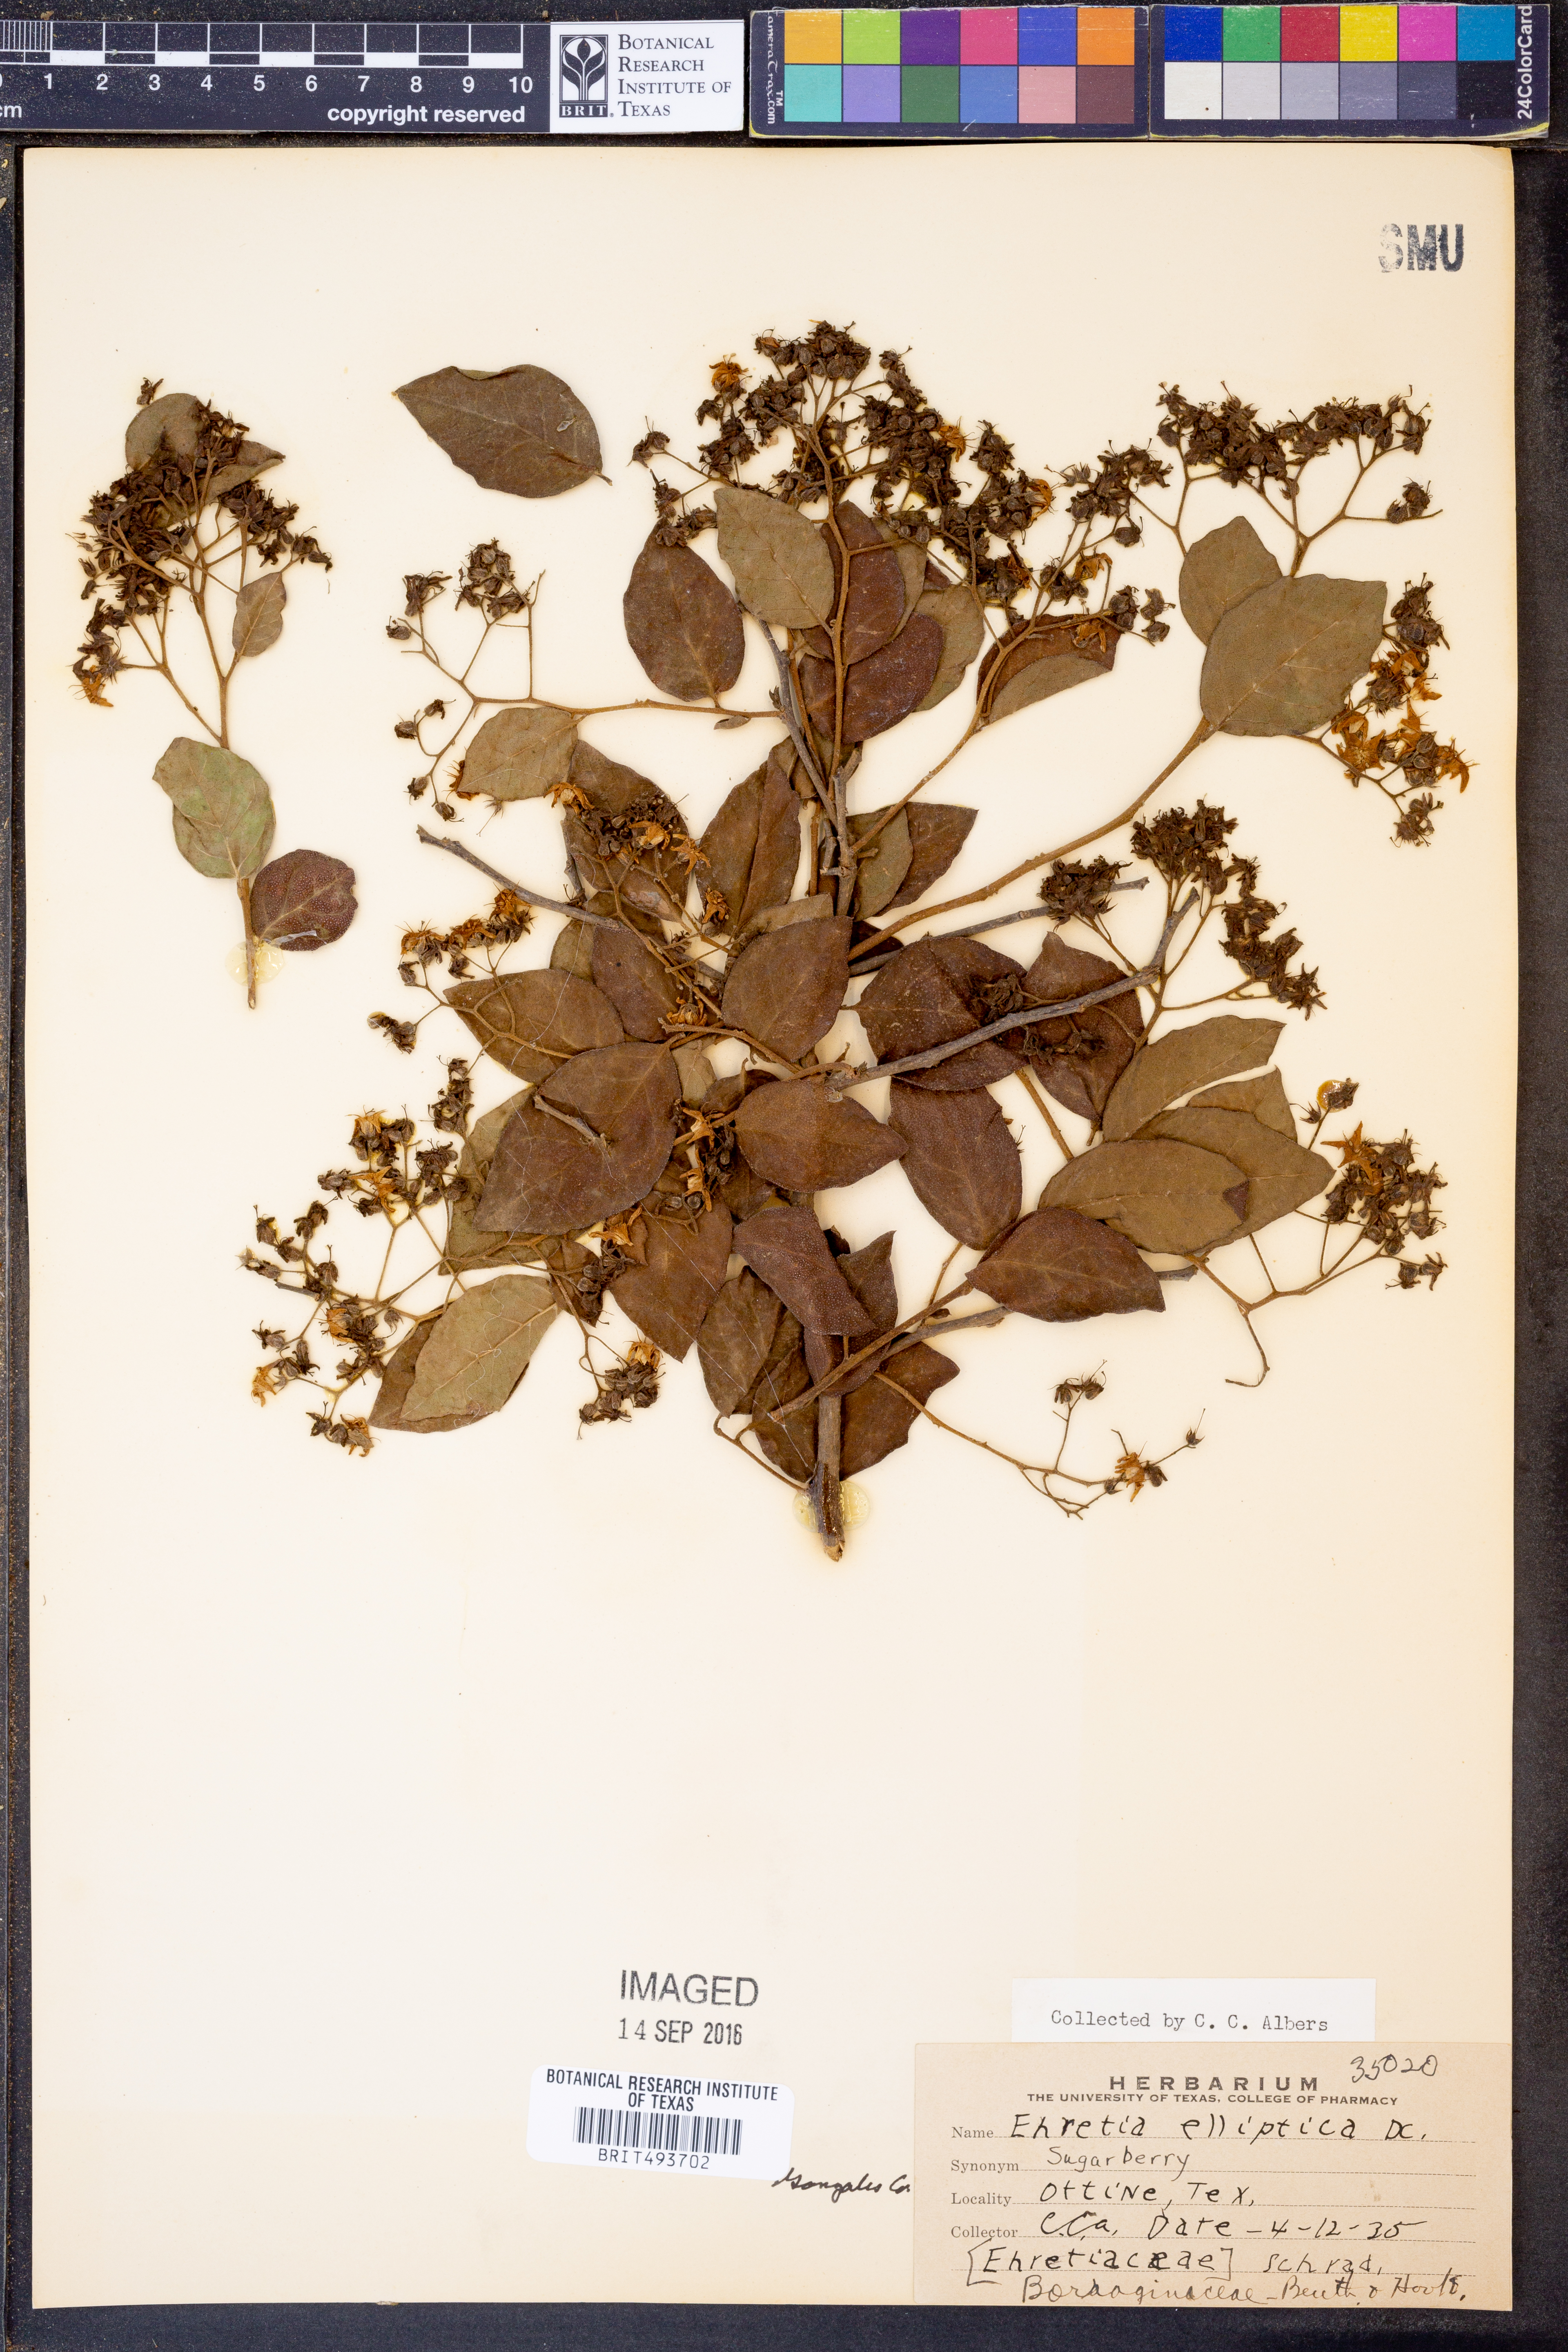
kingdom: Plantae
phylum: Tracheophyta
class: Magnoliopsida
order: Boraginales
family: Ehretiaceae
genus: Ehretia
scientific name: Ehretia anacua
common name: Sugarberry
